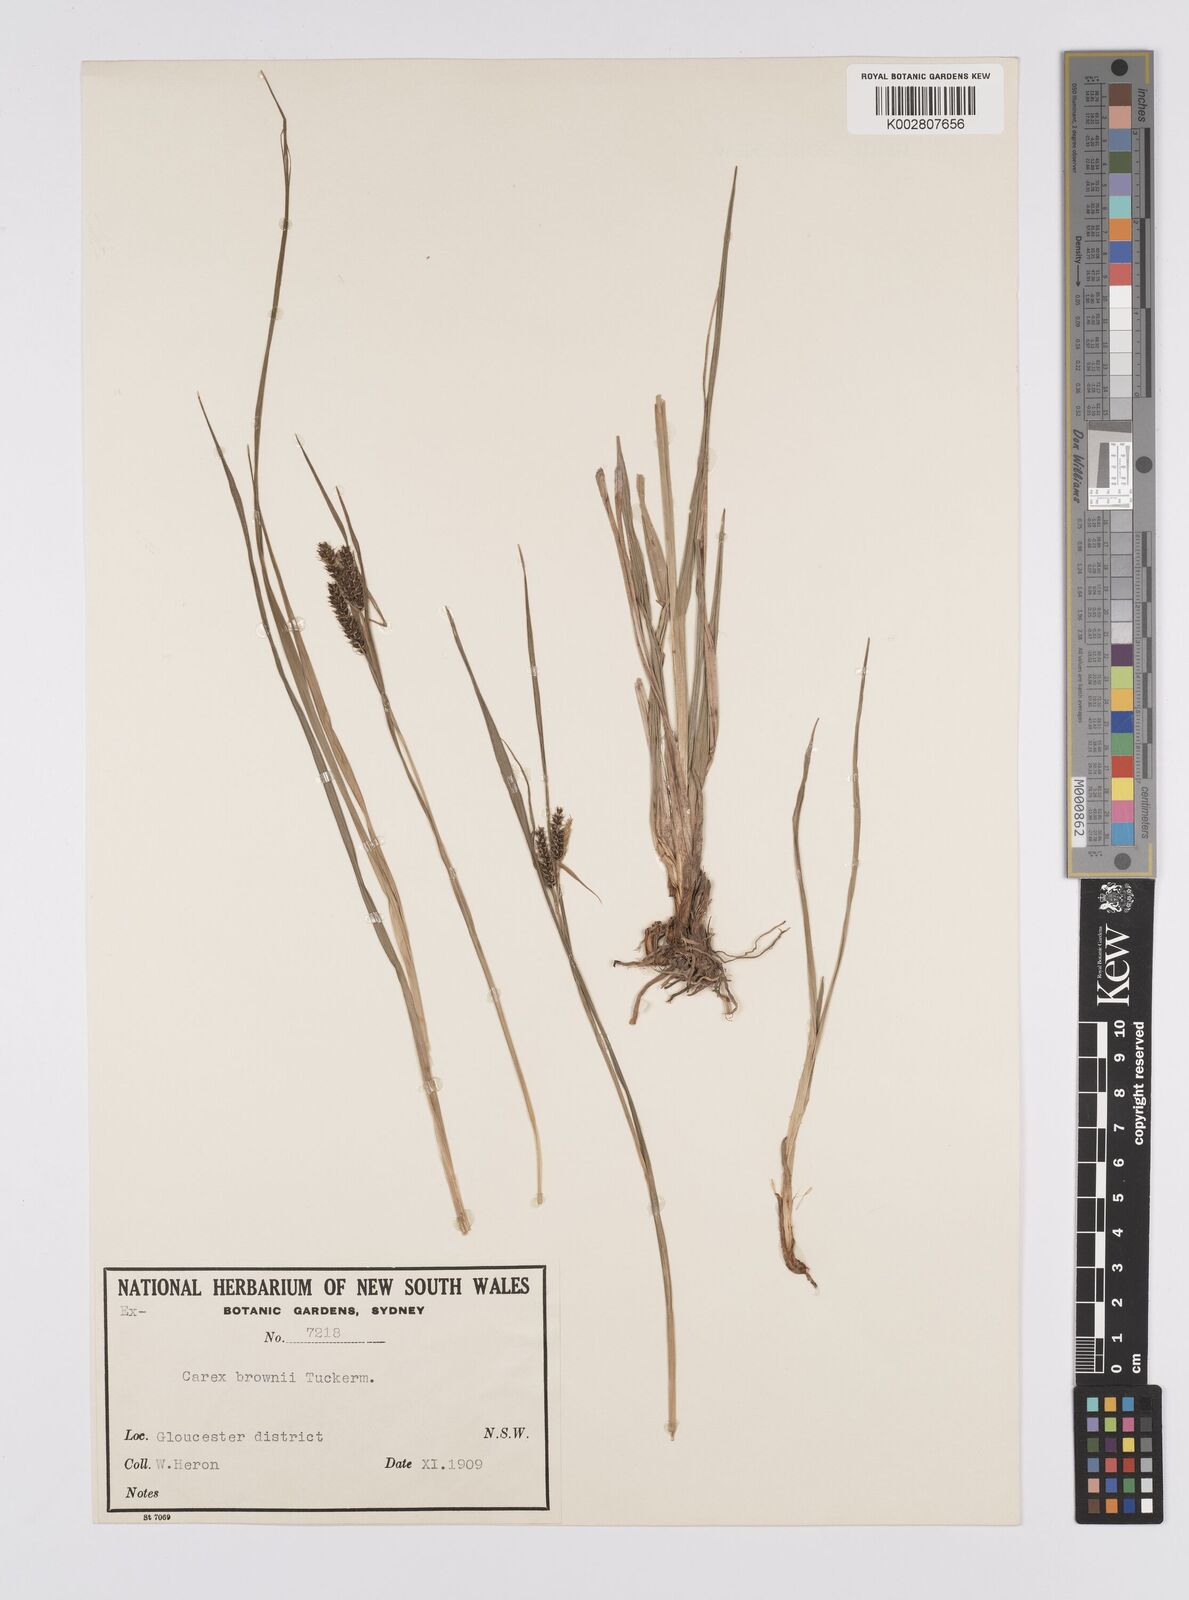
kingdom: Plantae
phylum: Tracheophyta
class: Liliopsida
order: Poales
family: Cyperaceae
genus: Carex
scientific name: Carex longebrachiata
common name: Drooping sedge
